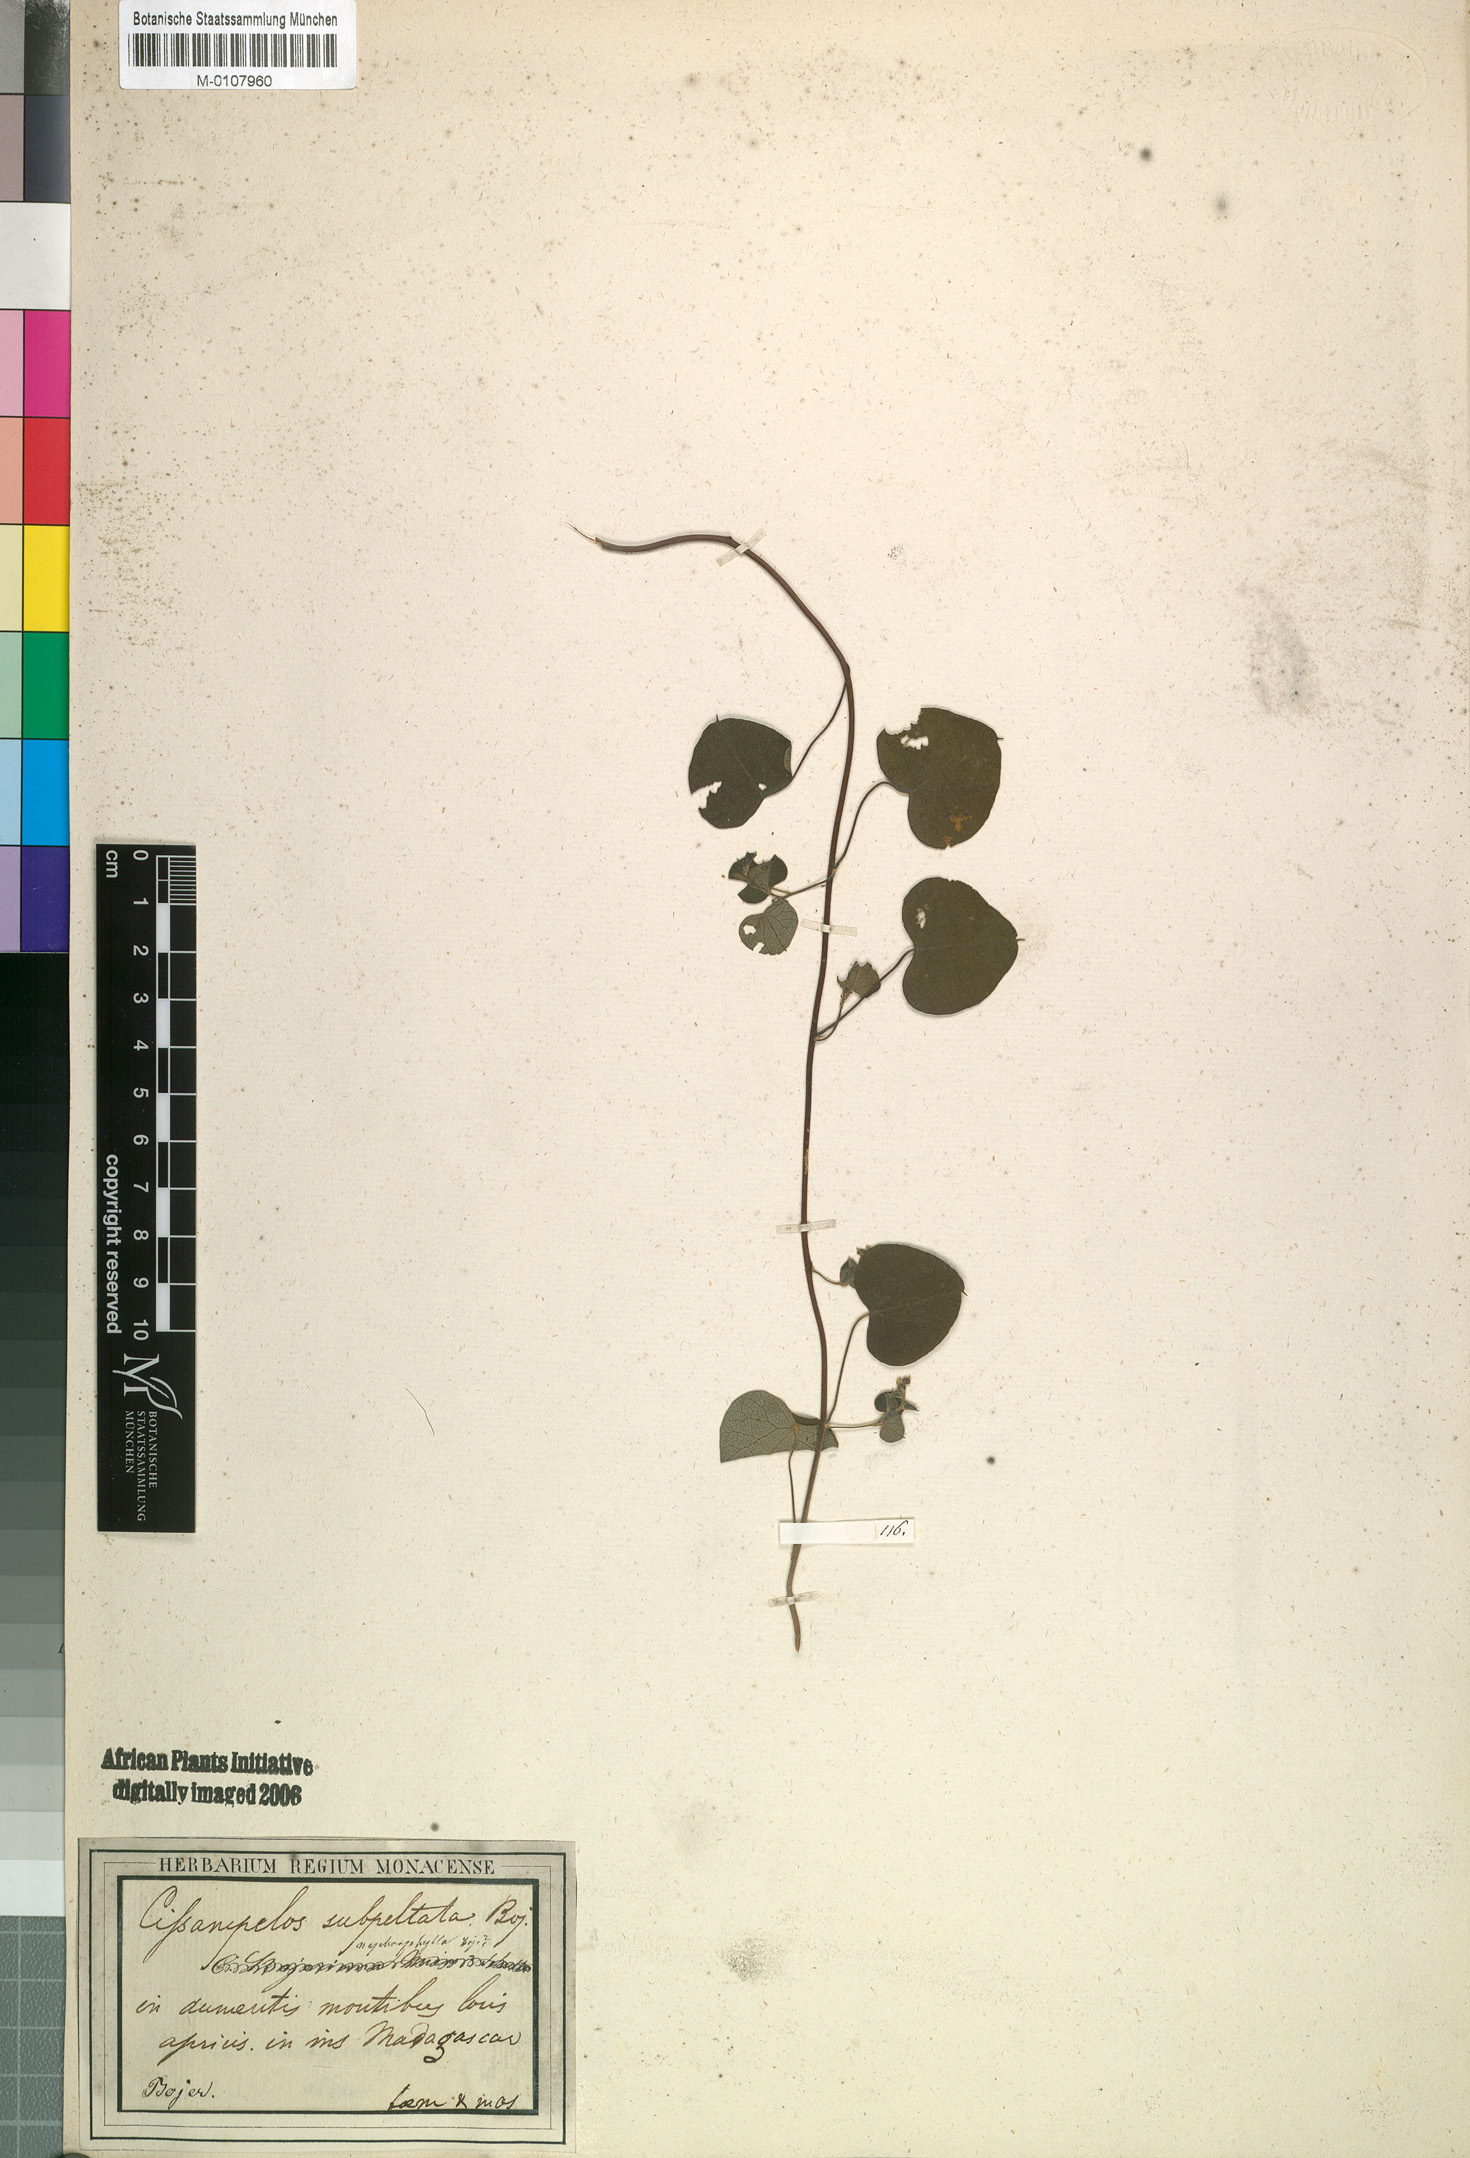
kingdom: Plantae
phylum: Tracheophyta
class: Magnoliopsida
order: Ranunculales
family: Menispermaceae
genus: Cissampelos
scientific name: Cissampelos pareira
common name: Velvetleaf
